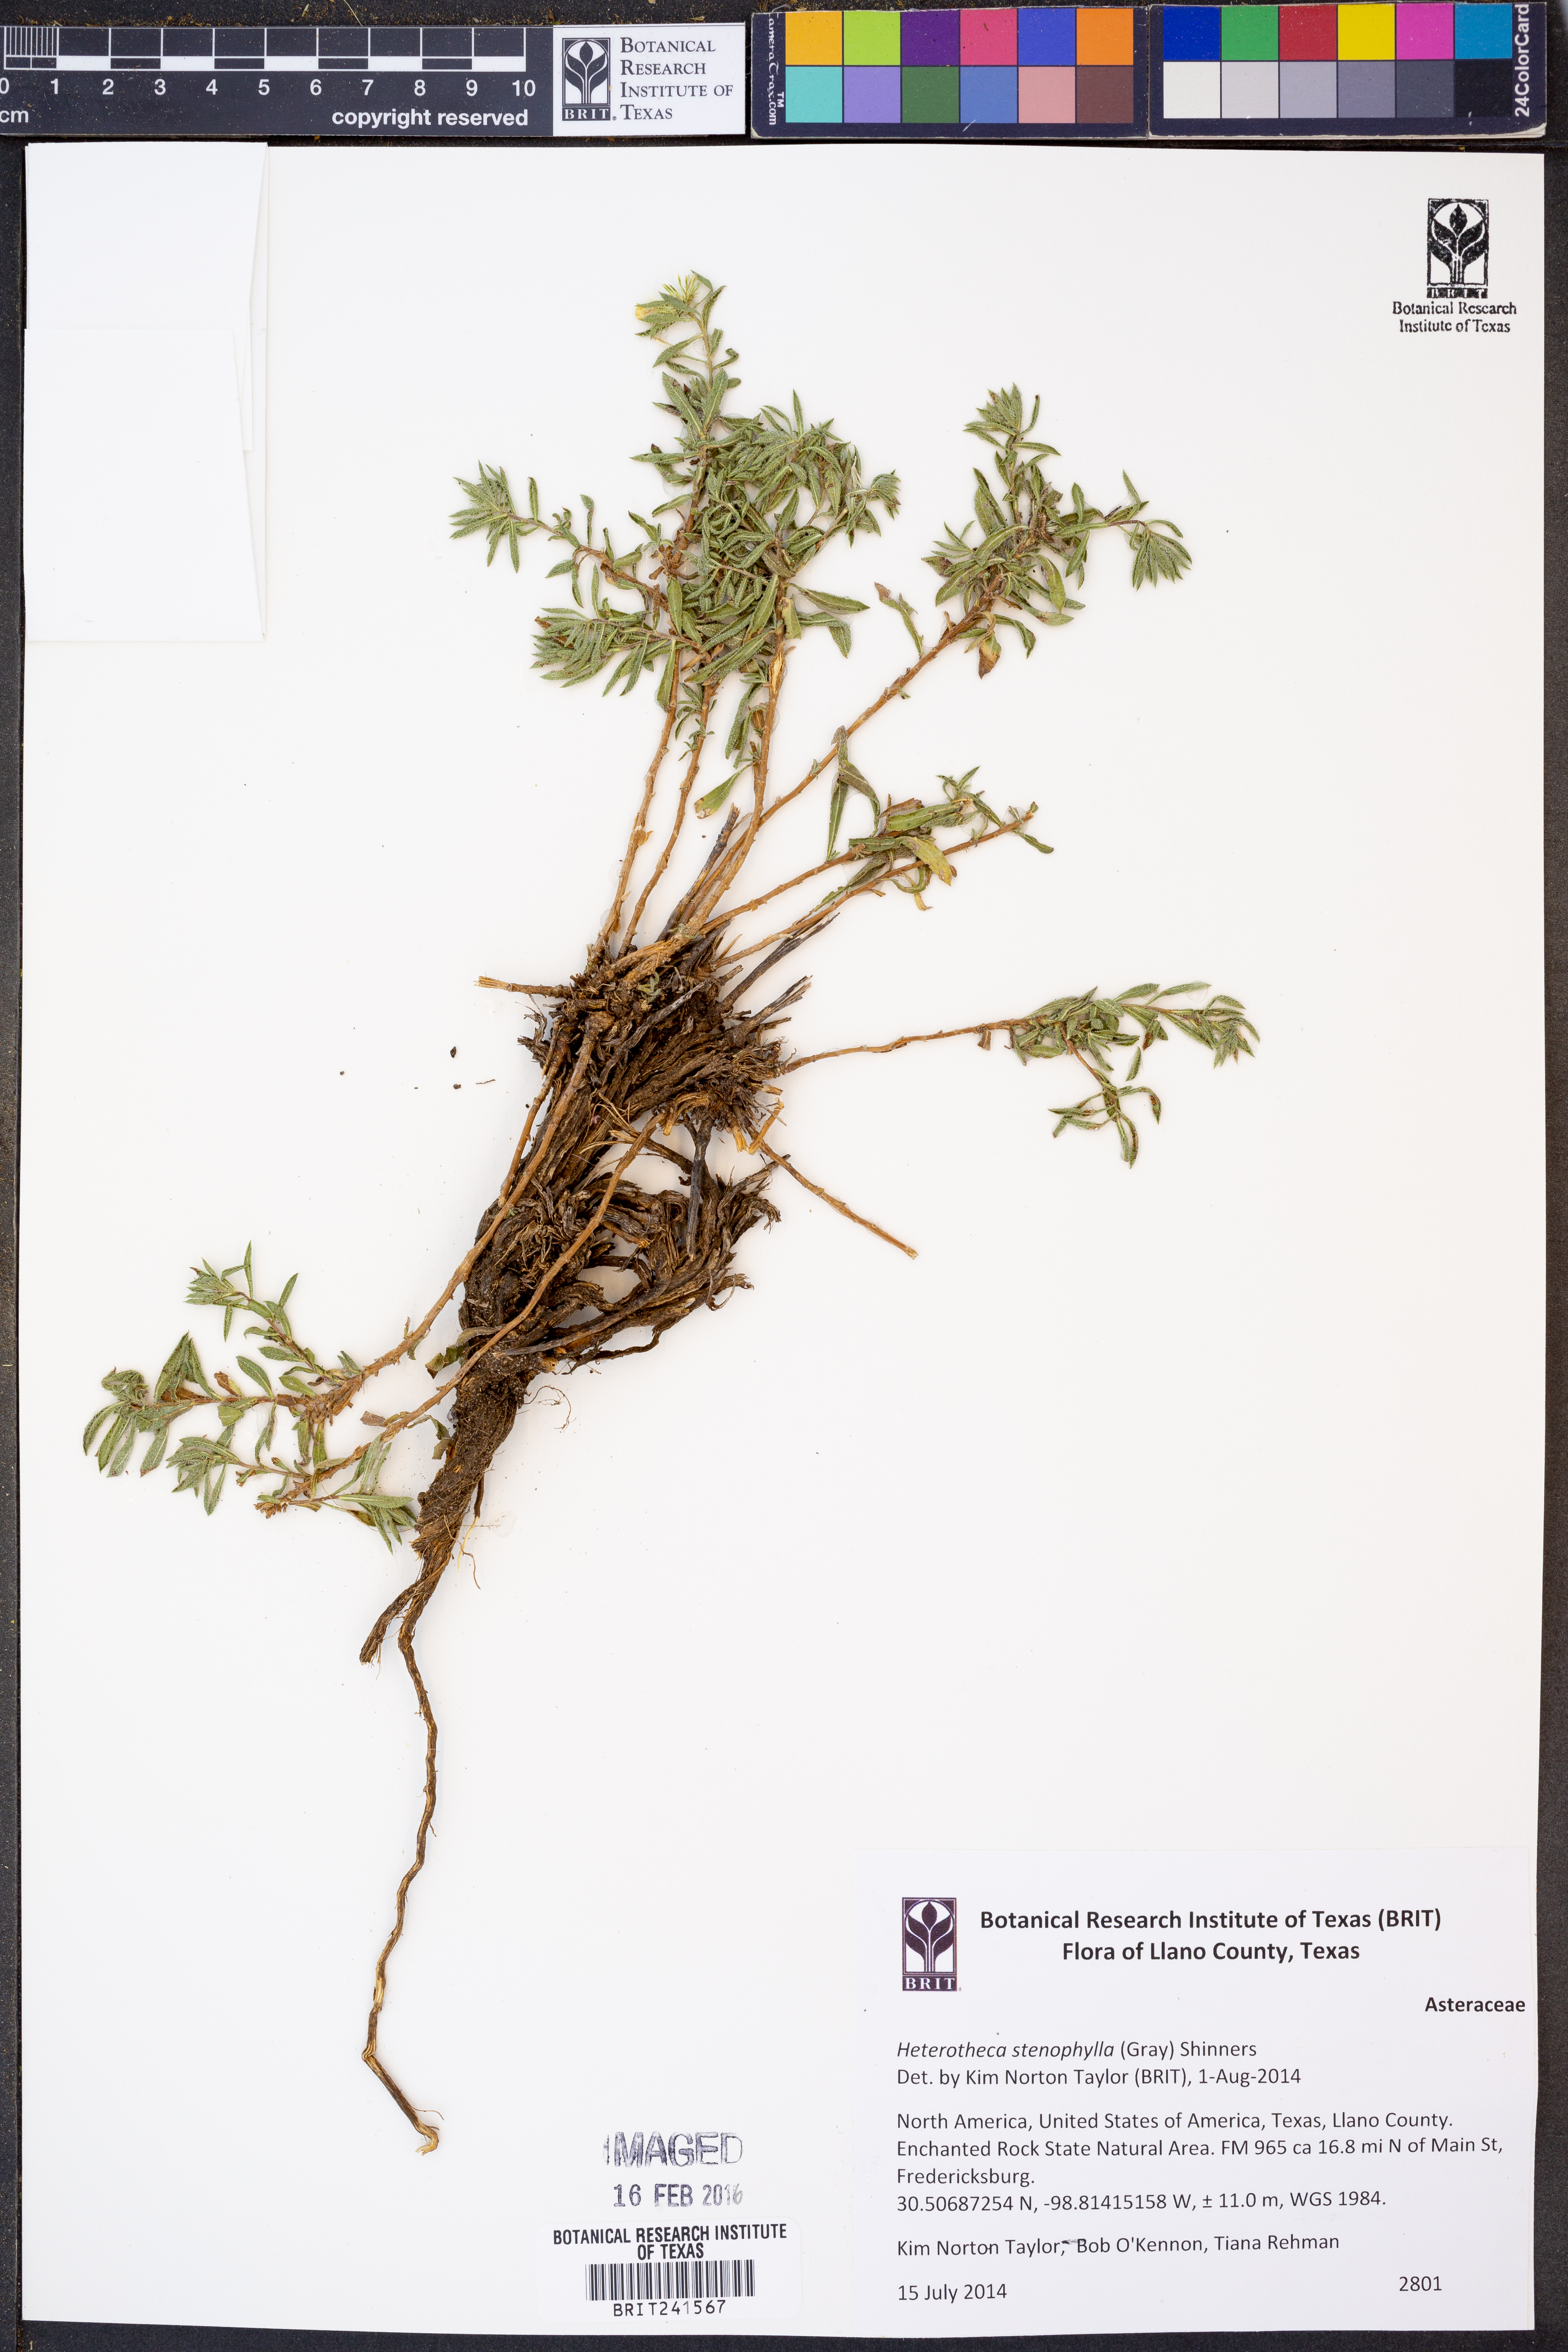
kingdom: Plantae
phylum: Tracheophyta
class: Magnoliopsida
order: Asterales
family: Asteraceae
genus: Heterotheca
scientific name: Heterotheca stenophylla
